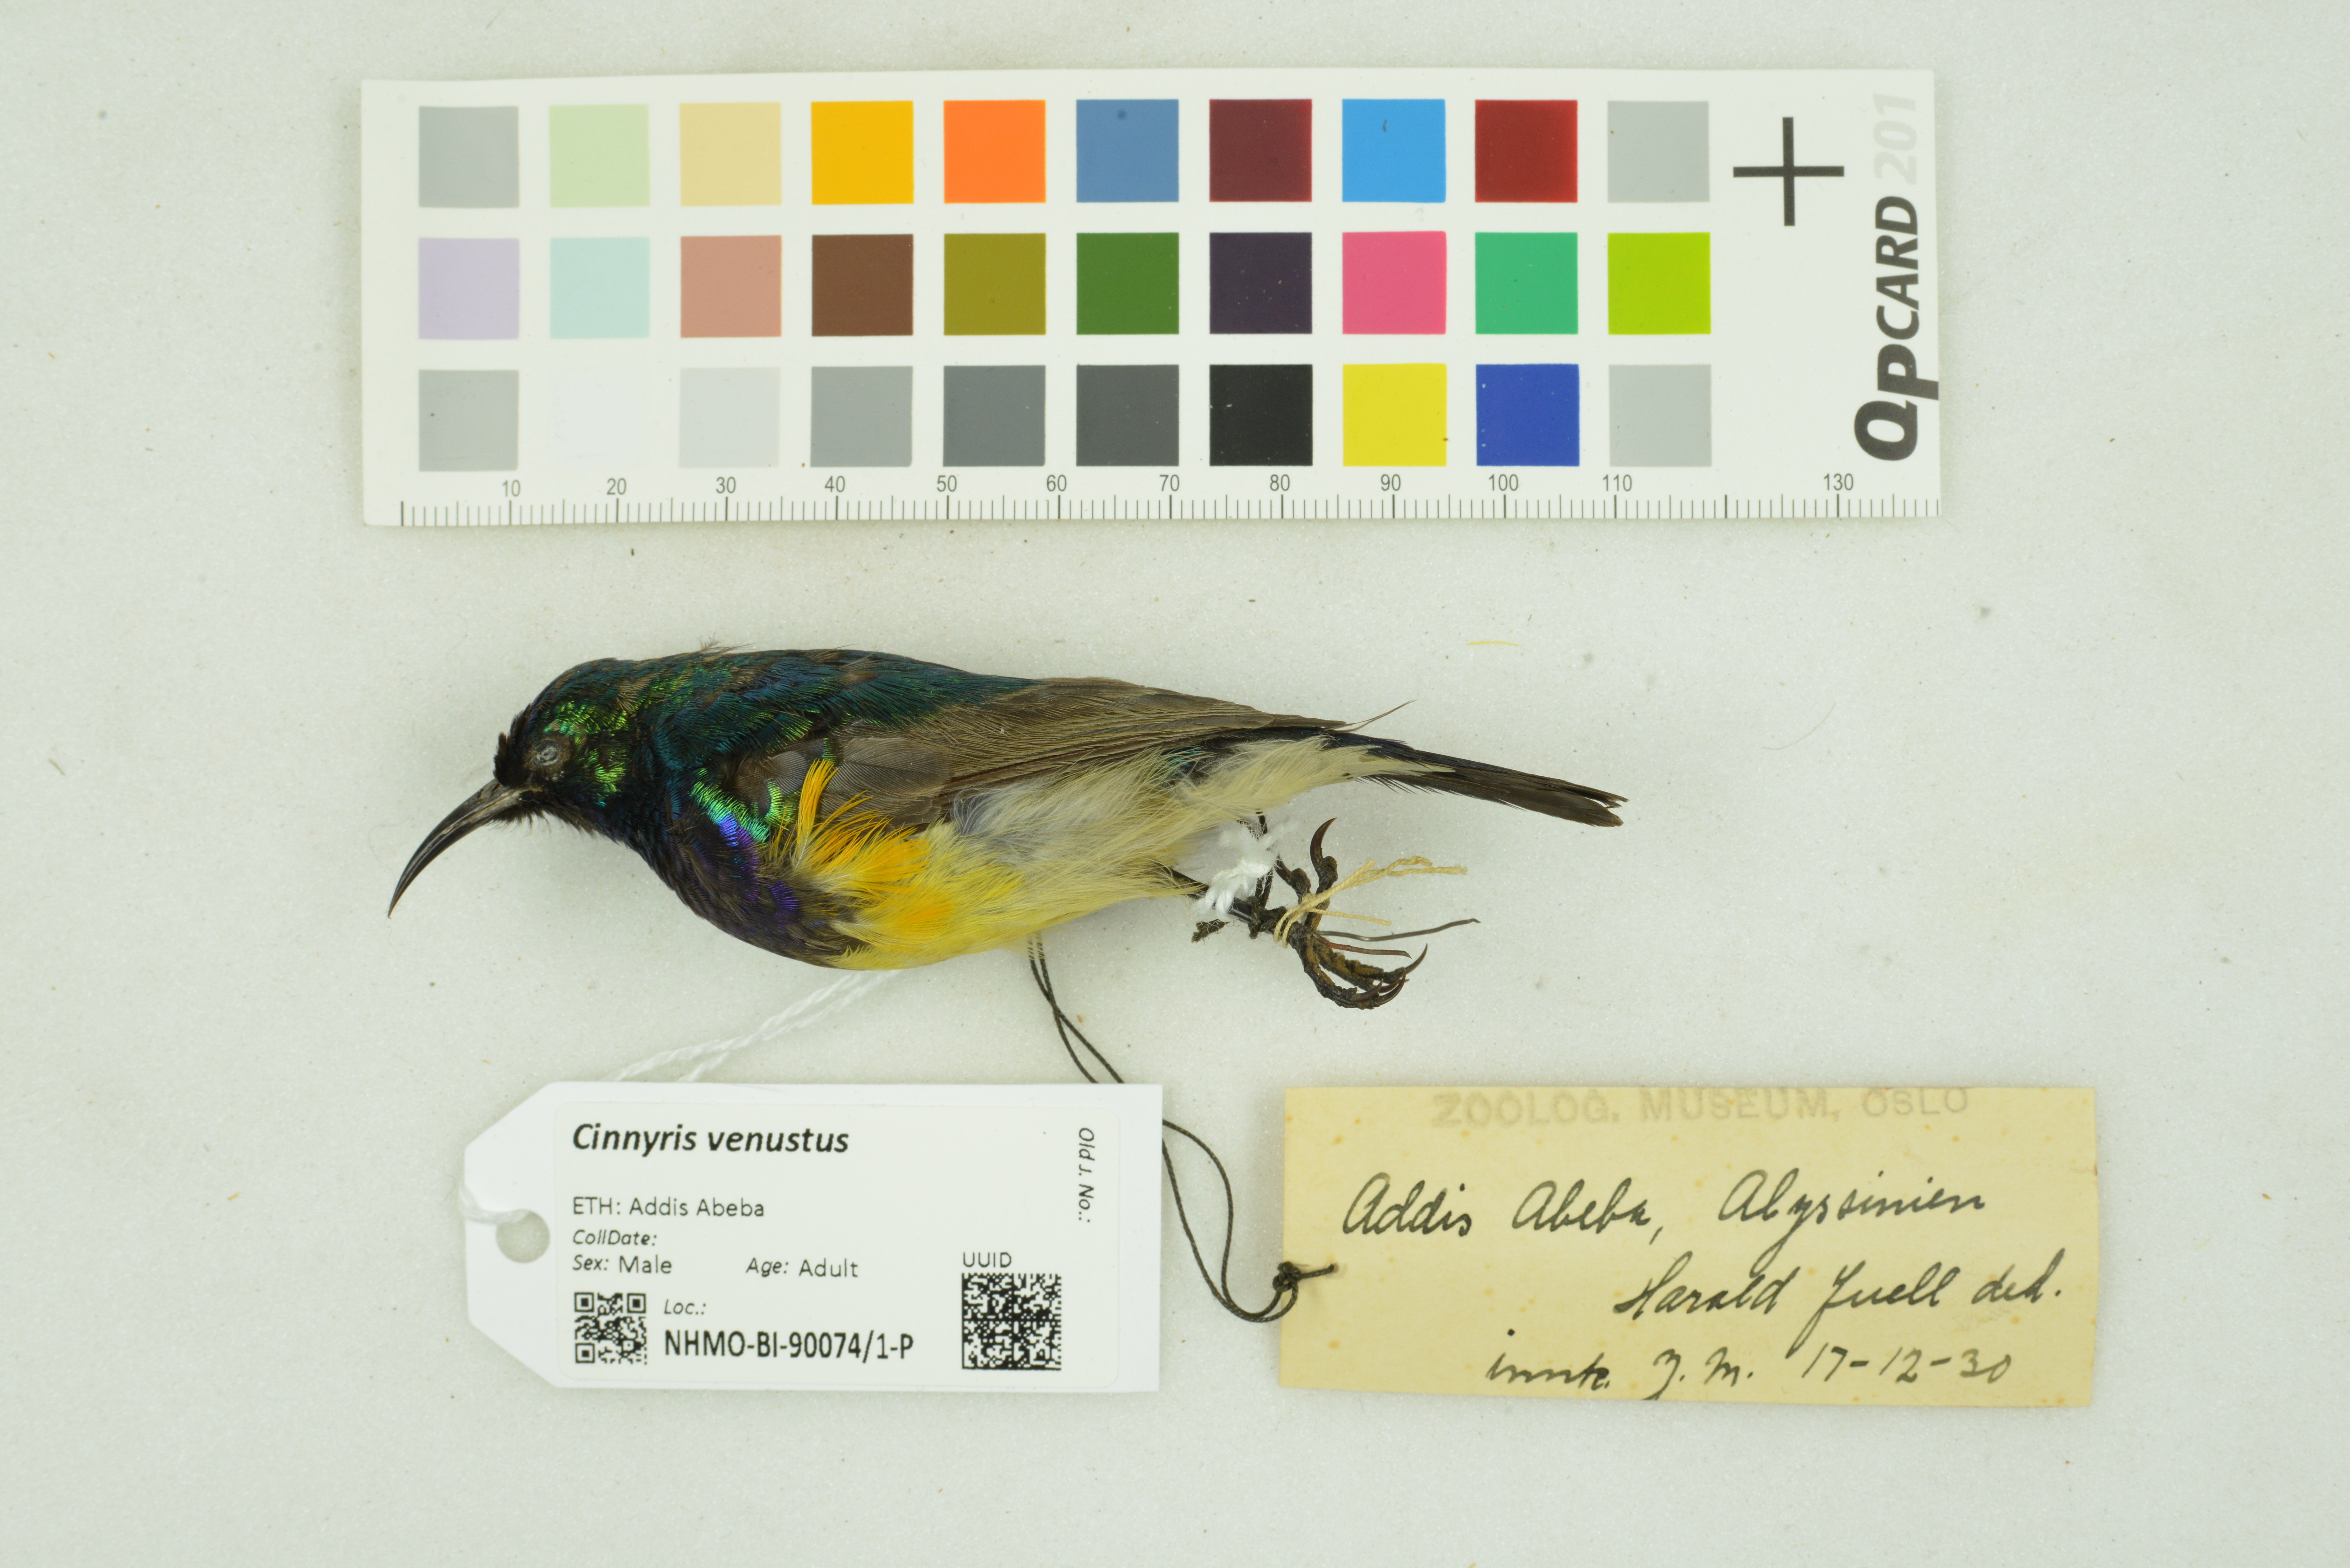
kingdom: Animalia
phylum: Chordata
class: Aves
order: Passeriformes
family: Nectariniidae
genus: Cinnyris
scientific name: Cinnyris venustus
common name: Variable sunbird
